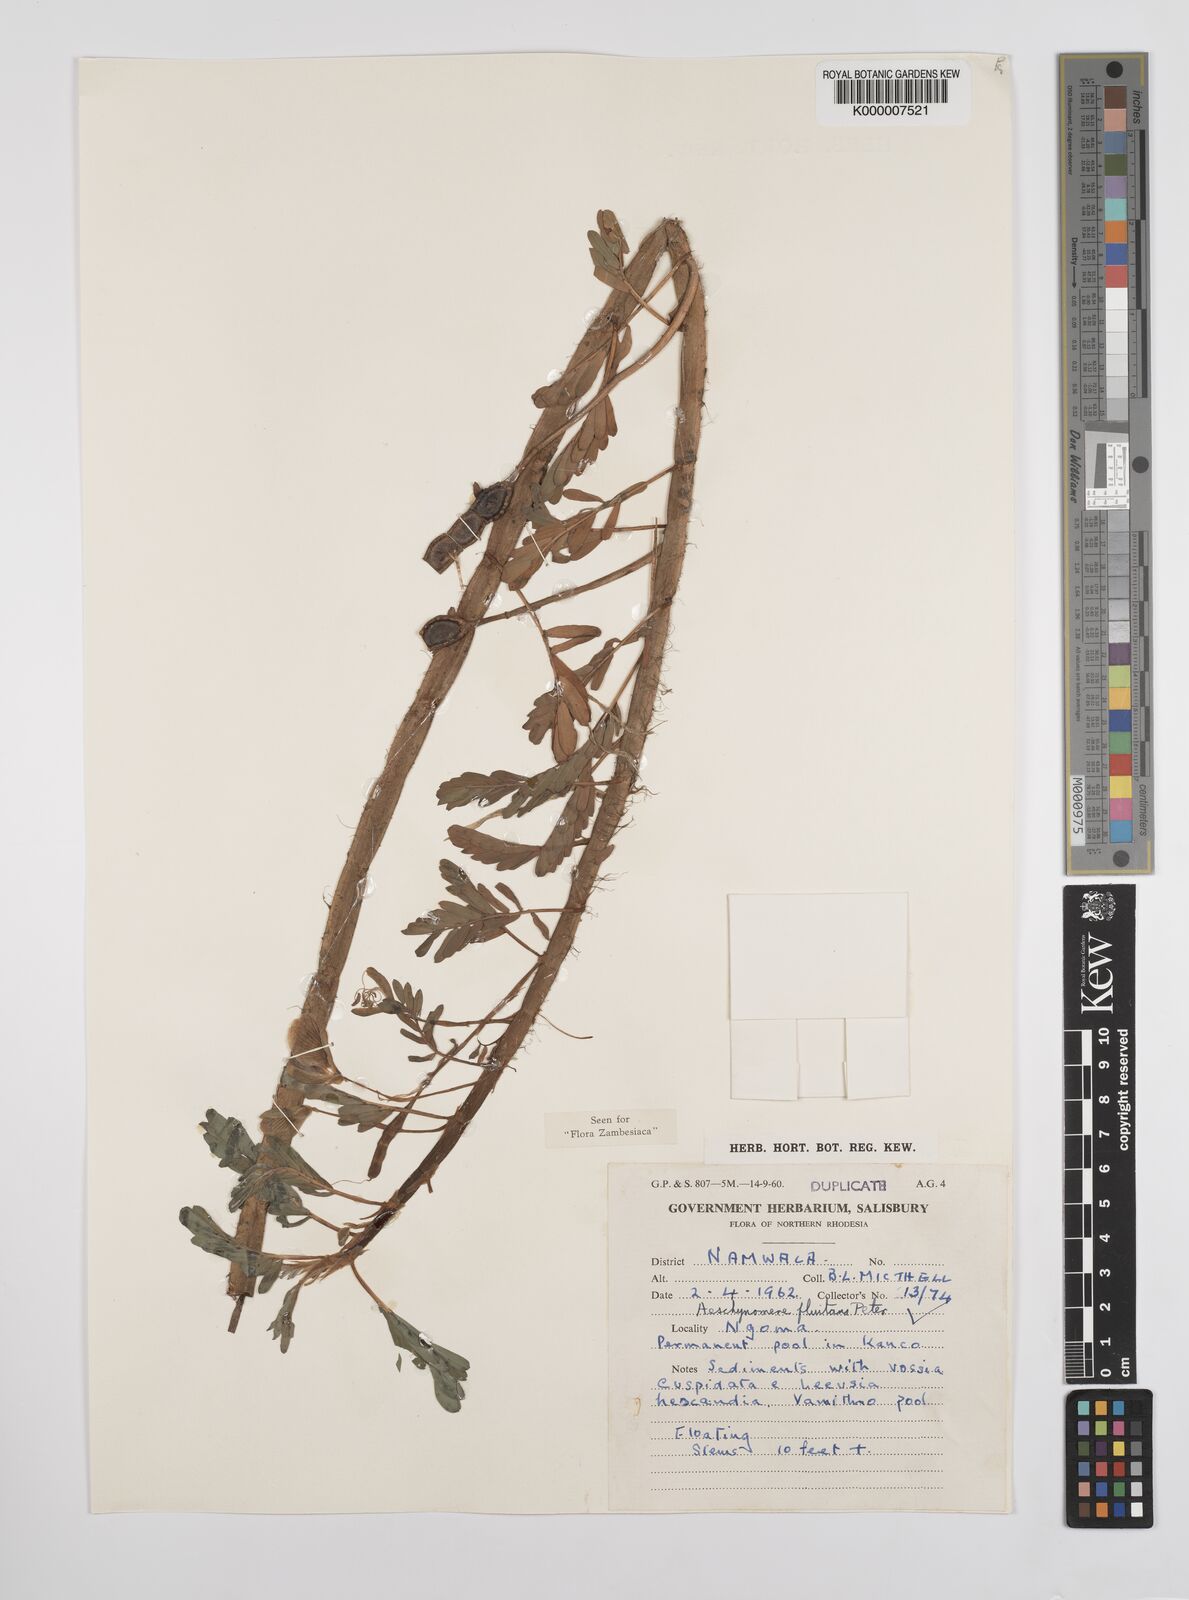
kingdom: Plantae
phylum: Tracheophyta
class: Magnoliopsida
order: Fabales
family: Fabaceae
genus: Aeschynomene
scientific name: Aeschynomene fluitans
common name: Giant water sensitive plant
